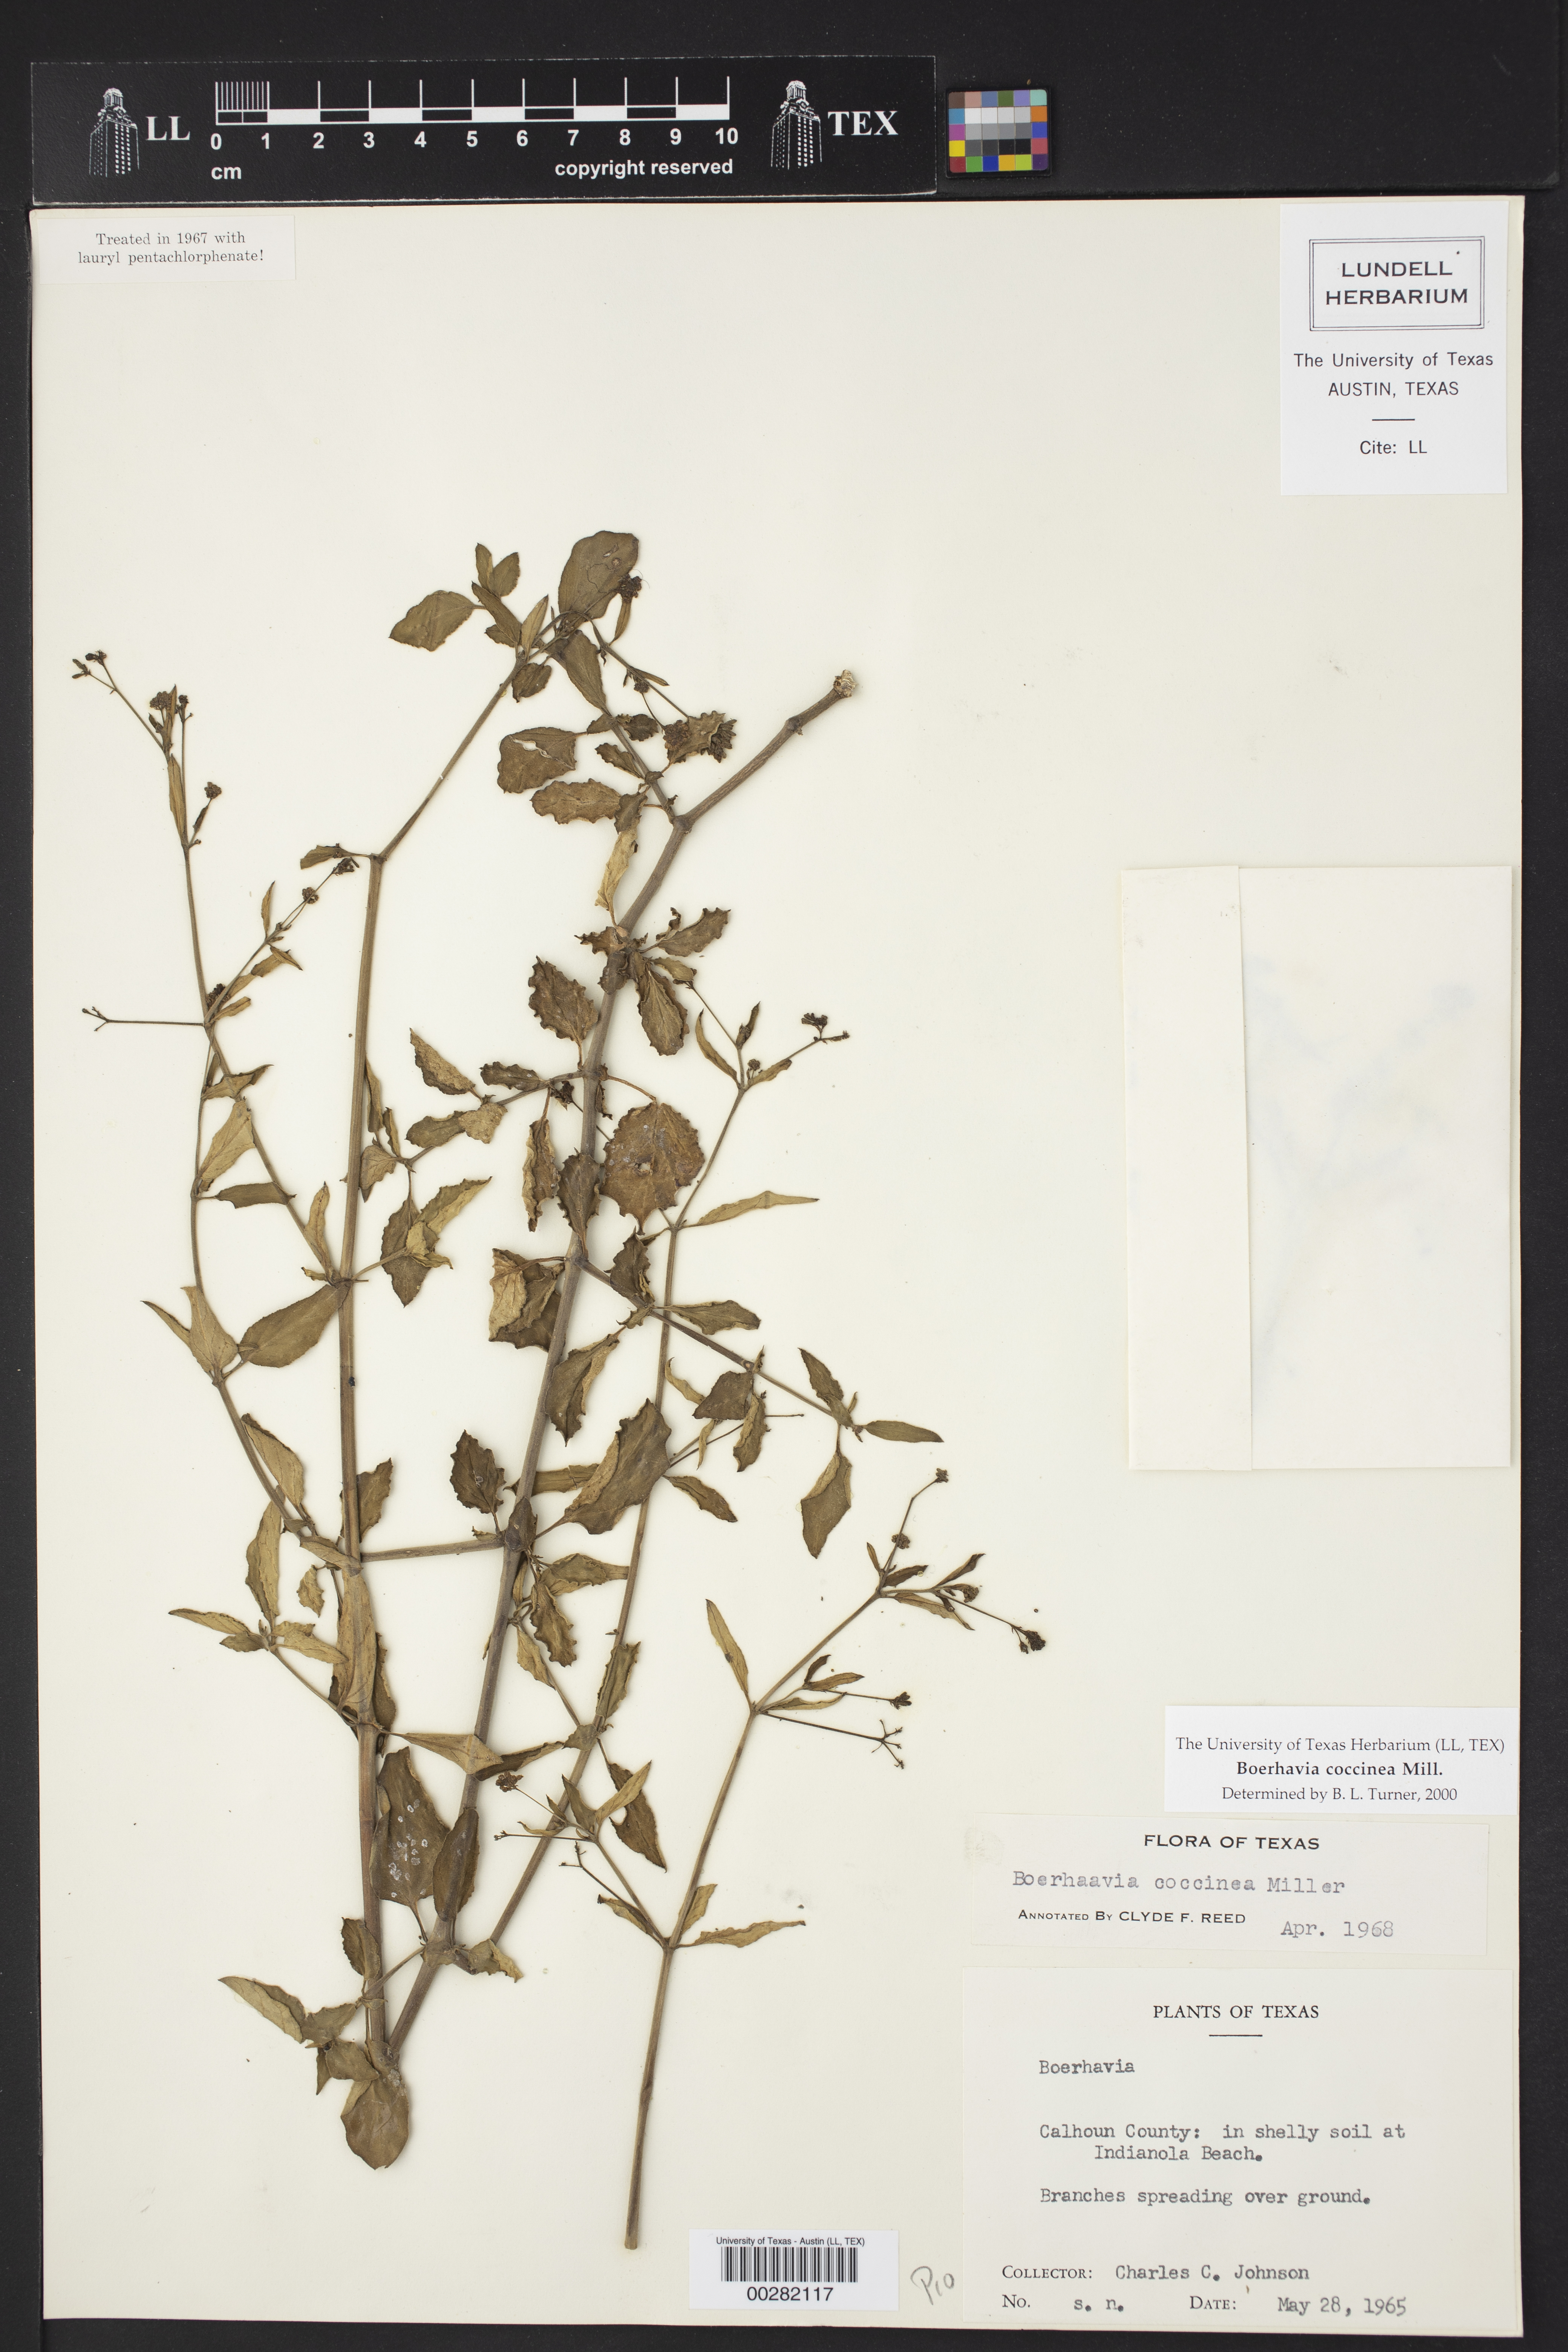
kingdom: Plantae
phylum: Tracheophyta
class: Magnoliopsida
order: Caryophyllales
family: Nyctaginaceae
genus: Boerhavia
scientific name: Boerhavia coccinea
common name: Scarlet spiderling
